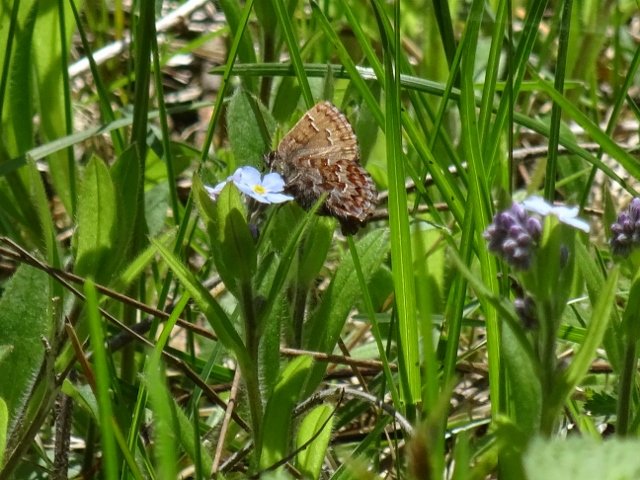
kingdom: Animalia
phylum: Arthropoda
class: Insecta
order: Lepidoptera
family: Lycaenidae
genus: Incisalia
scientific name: Incisalia niphon
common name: Eastern Pine Elfin
